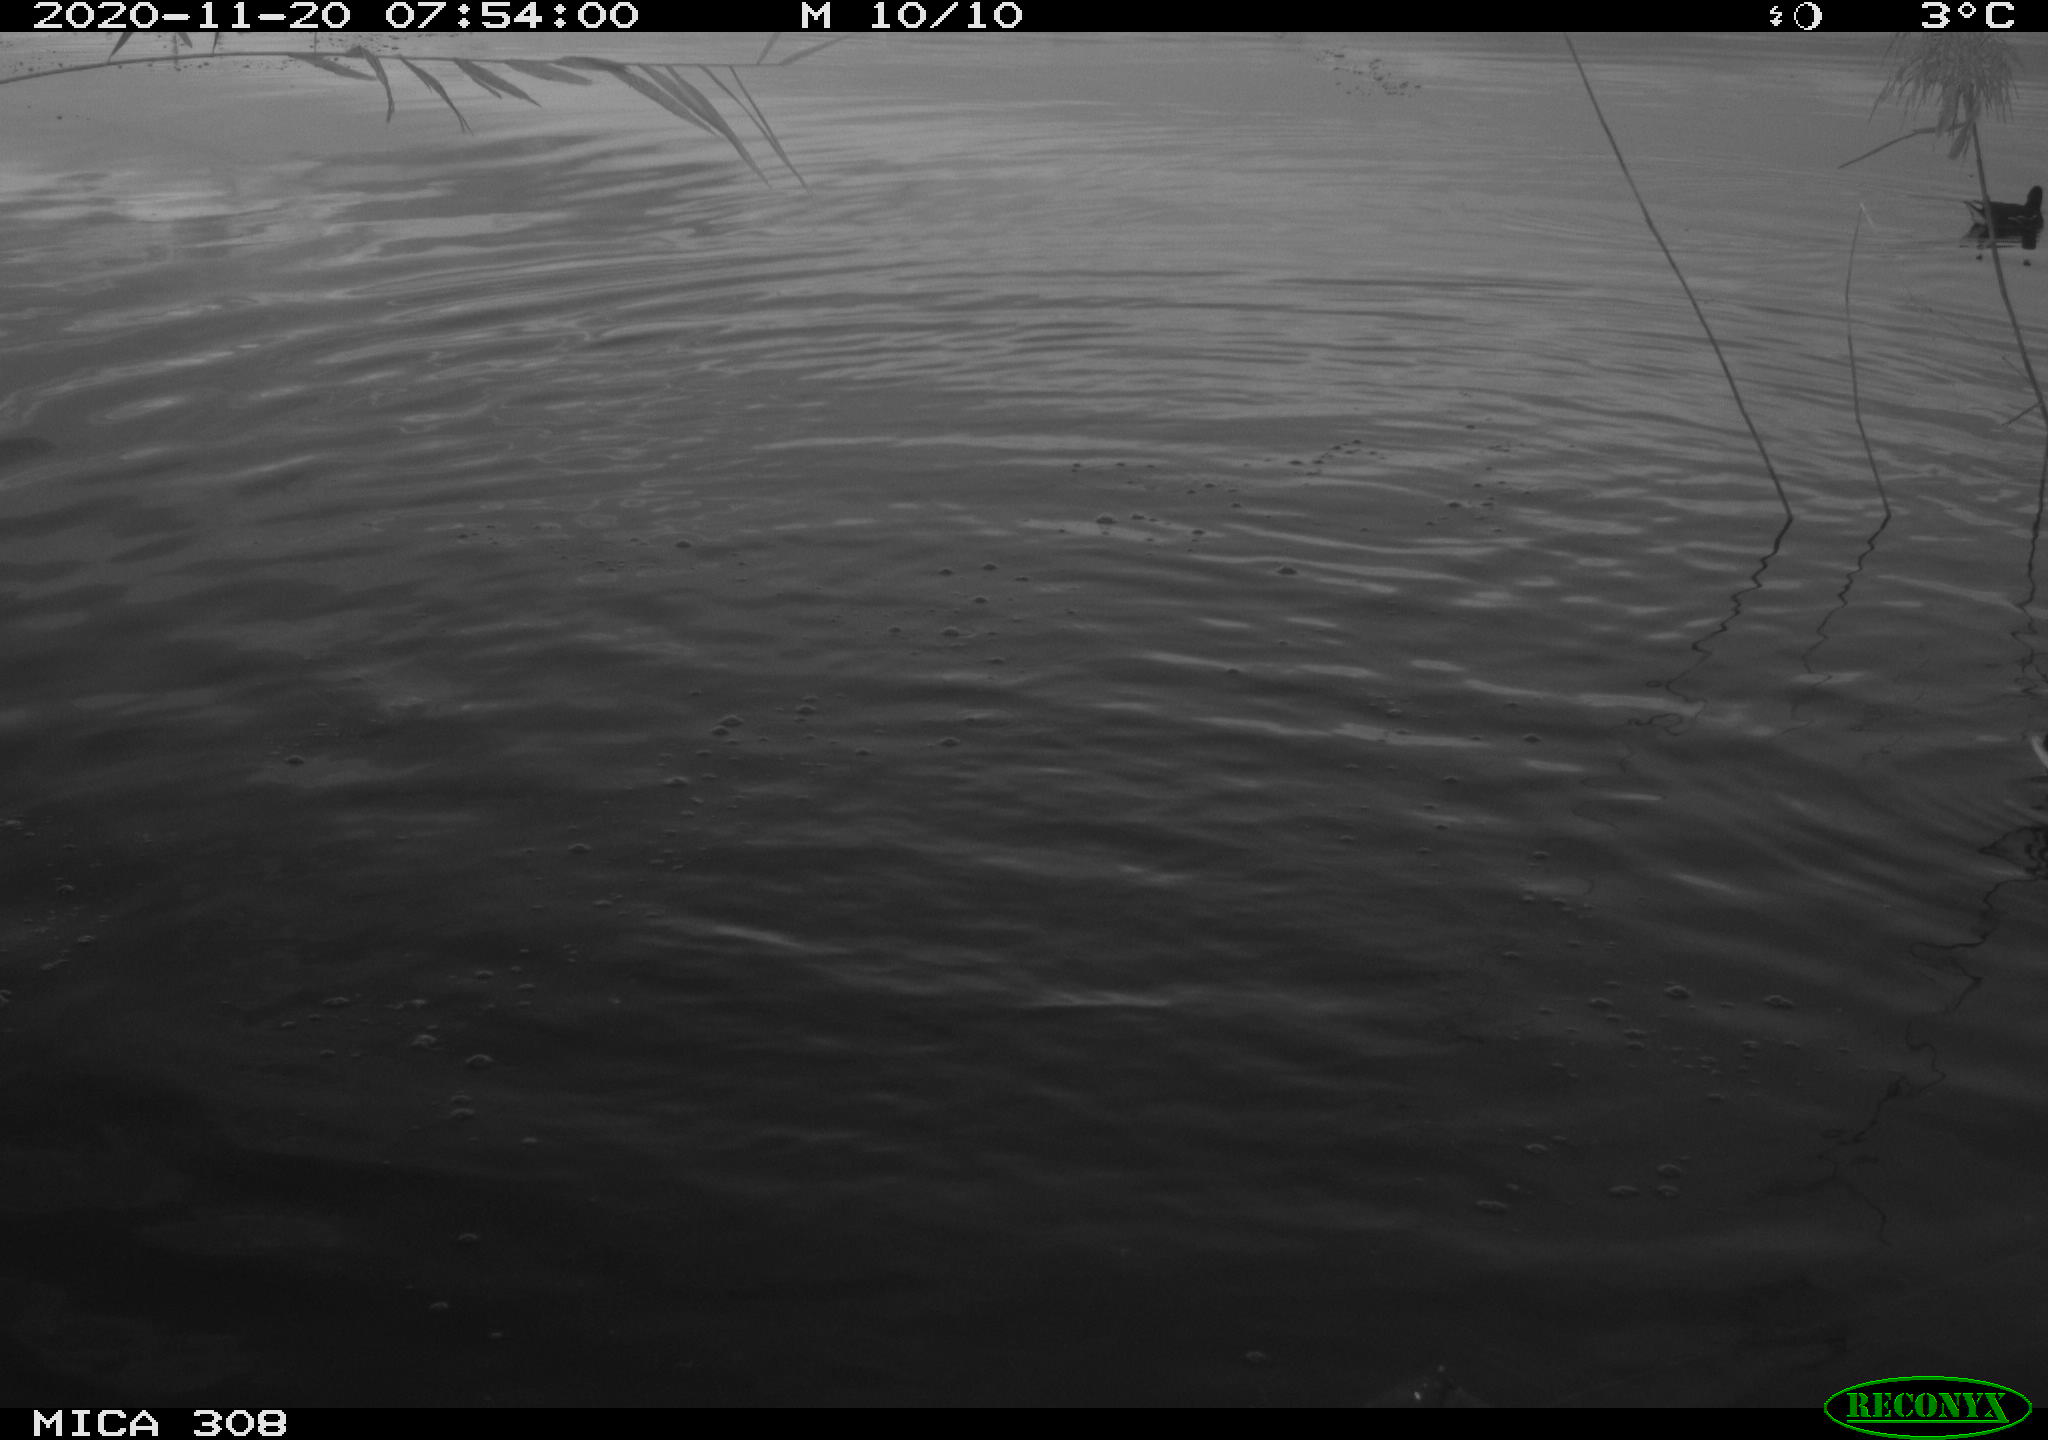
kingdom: Animalia
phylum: Chordata
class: Aves
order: Gruiformes
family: Rallidae
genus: Gallinula
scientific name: Gallinula chloropus
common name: Common moorhen
